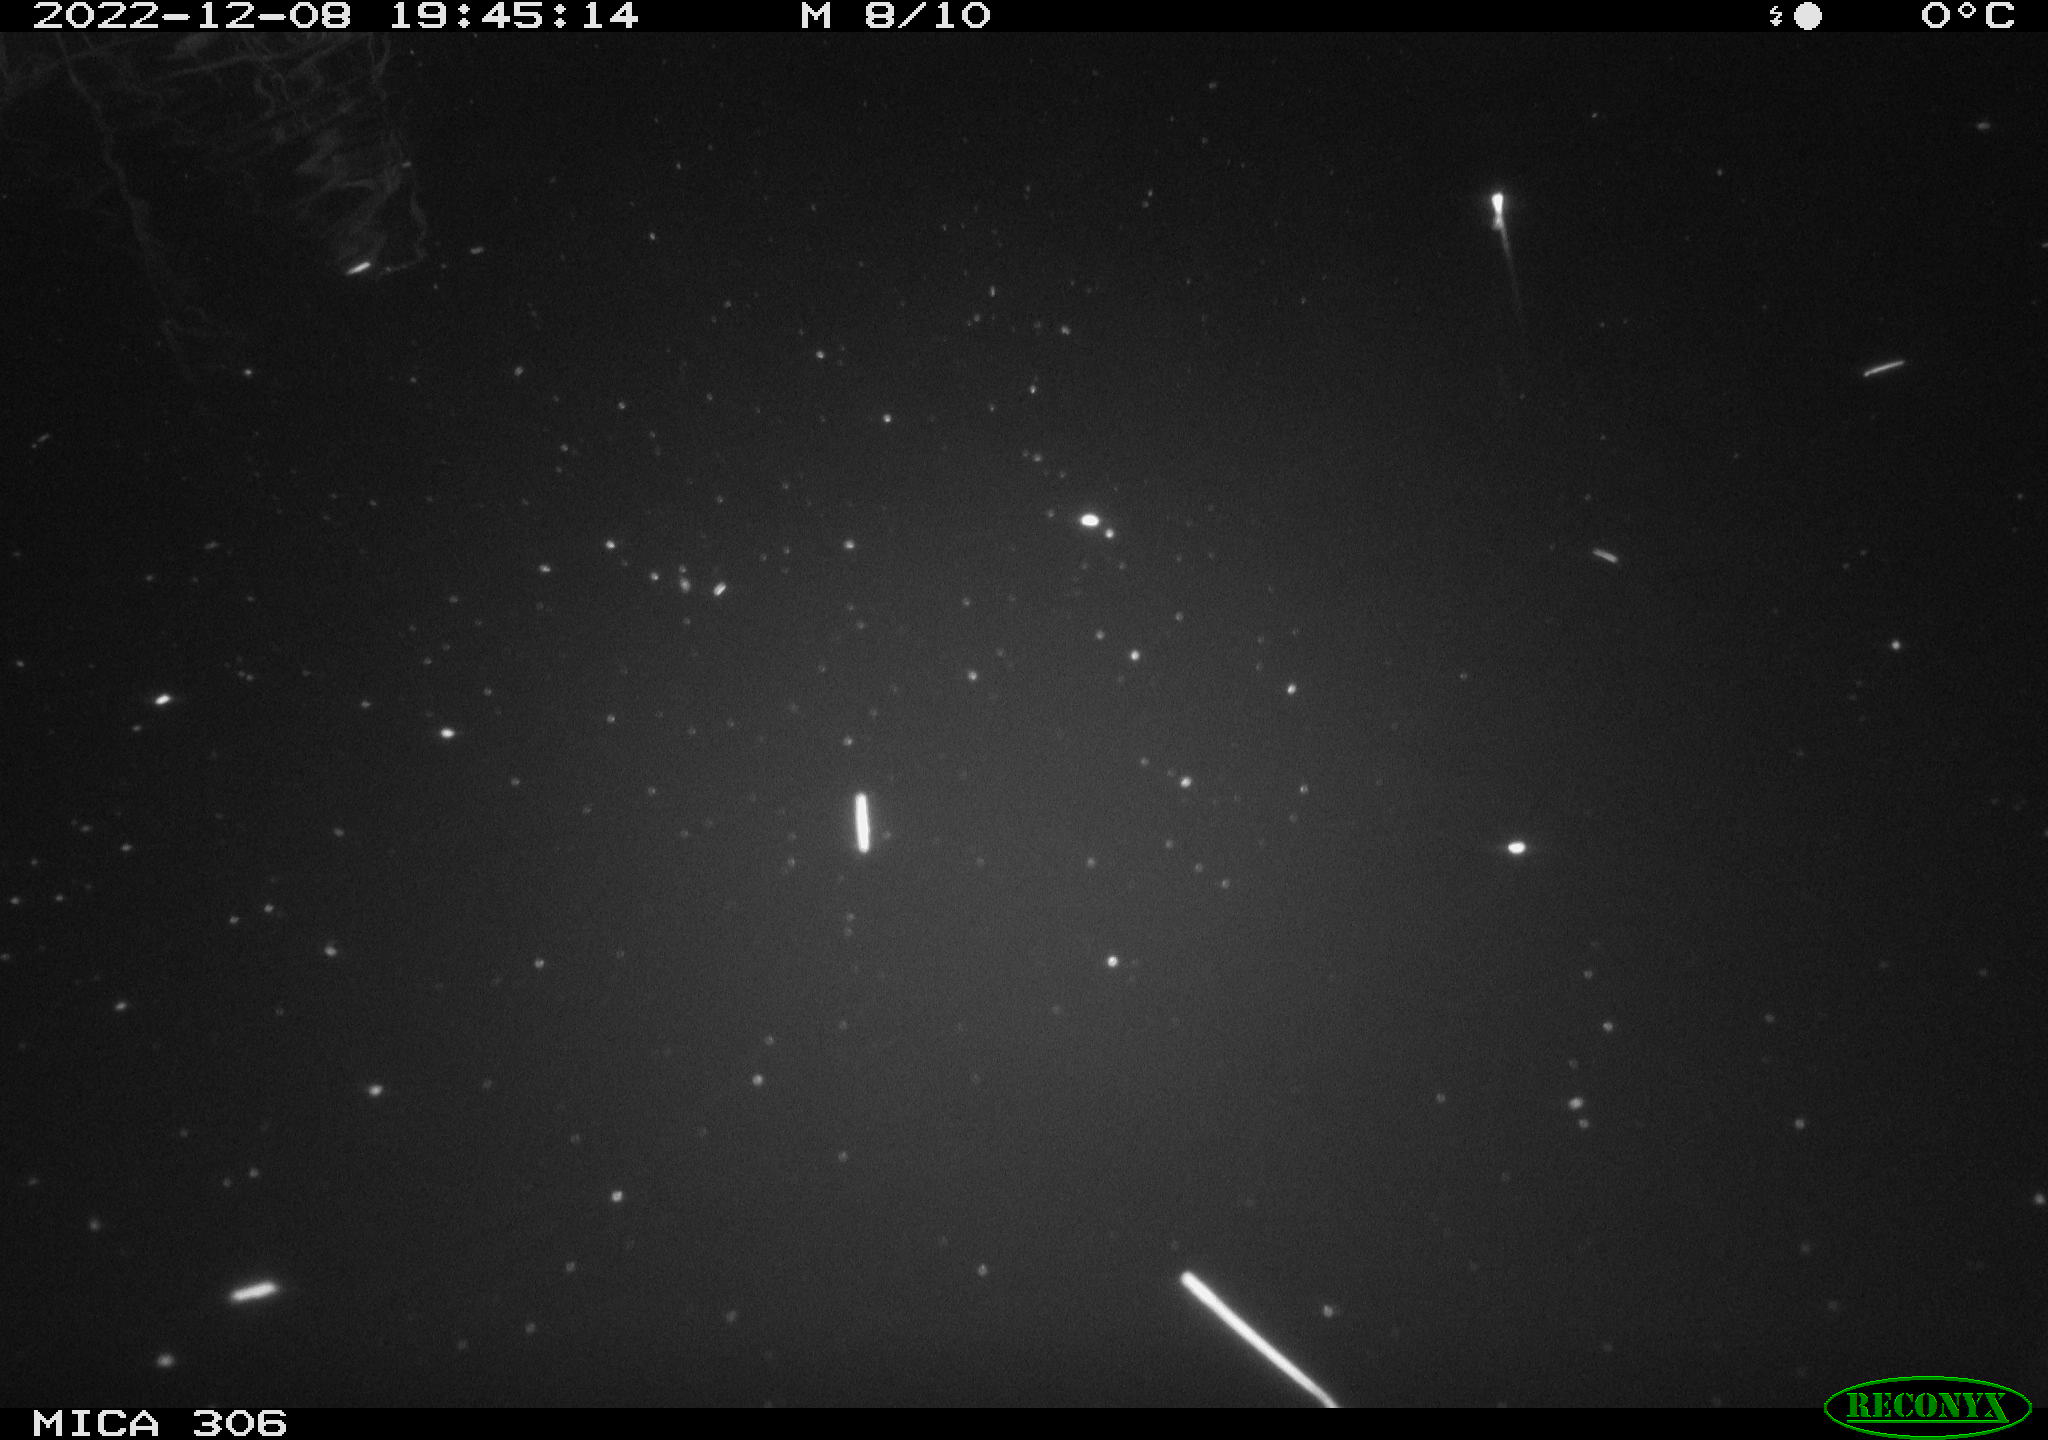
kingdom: Animalia
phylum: Chordata
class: Mammalia
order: Rodentia
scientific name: Rodentia
